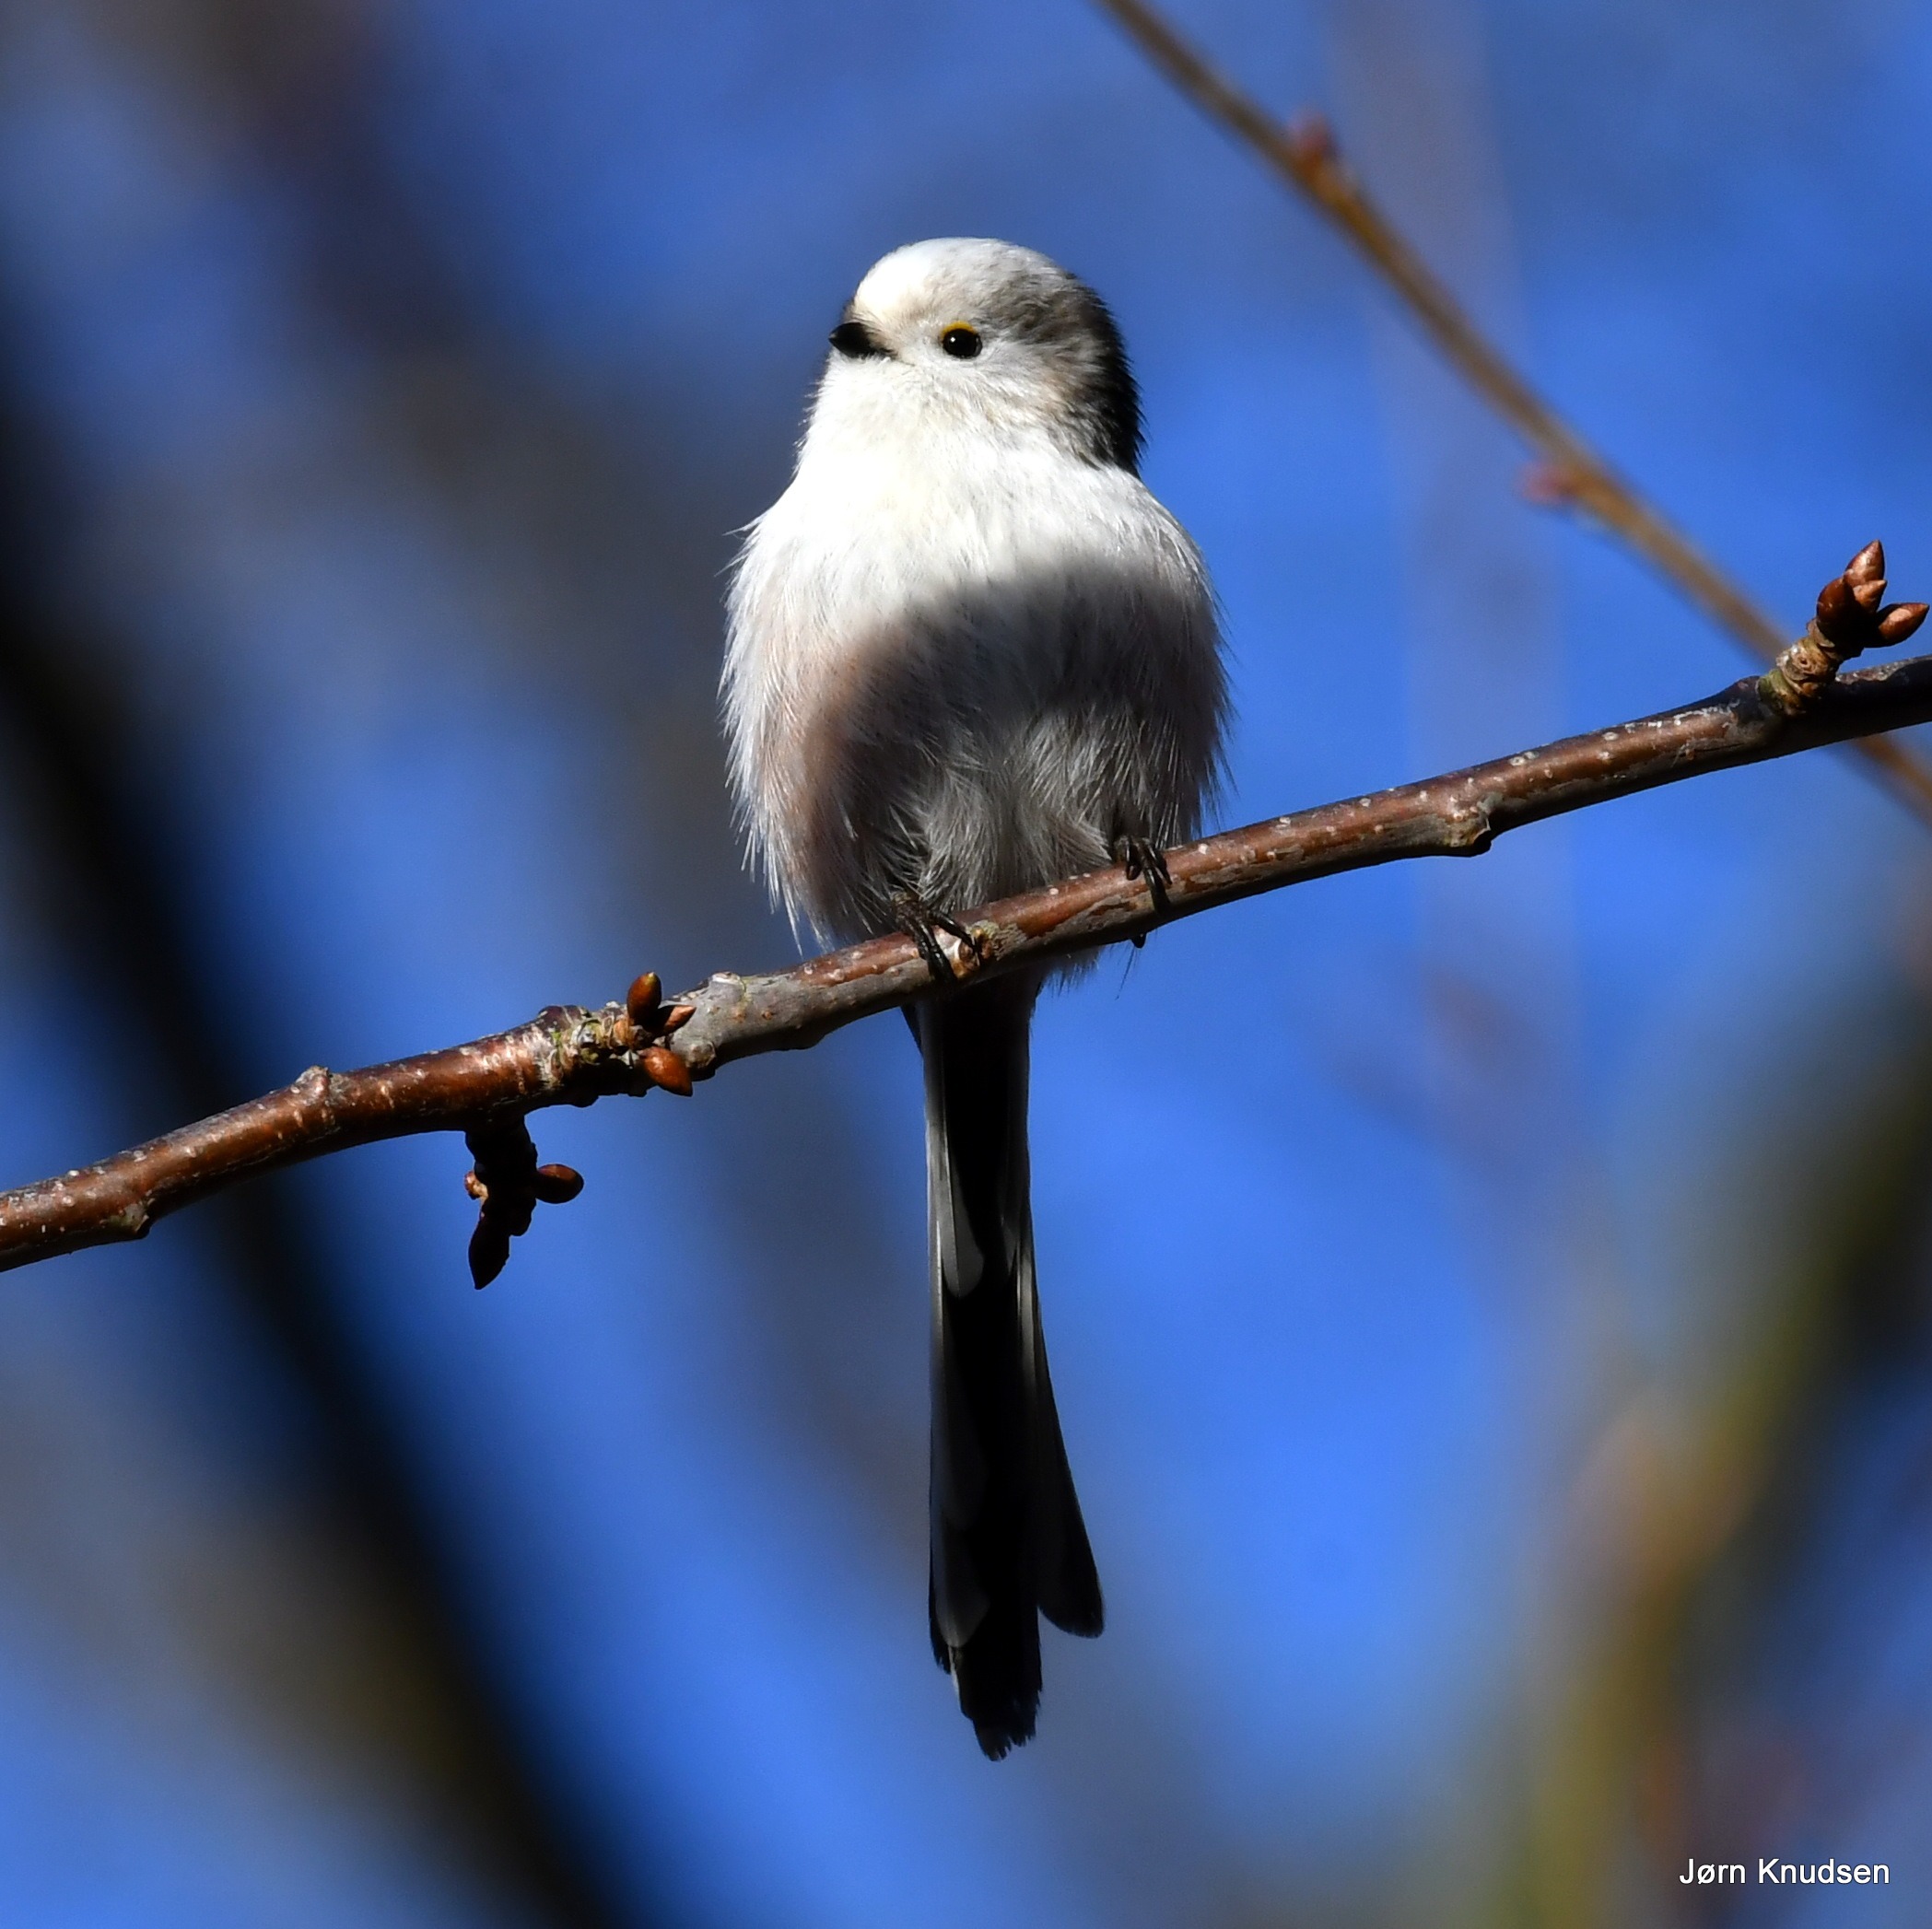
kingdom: Animalia
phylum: Chordata
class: Aves
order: Passeriformes
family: Aegithalidae
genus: Aegithalos
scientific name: Aegithalos caudatus
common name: Halemejse
